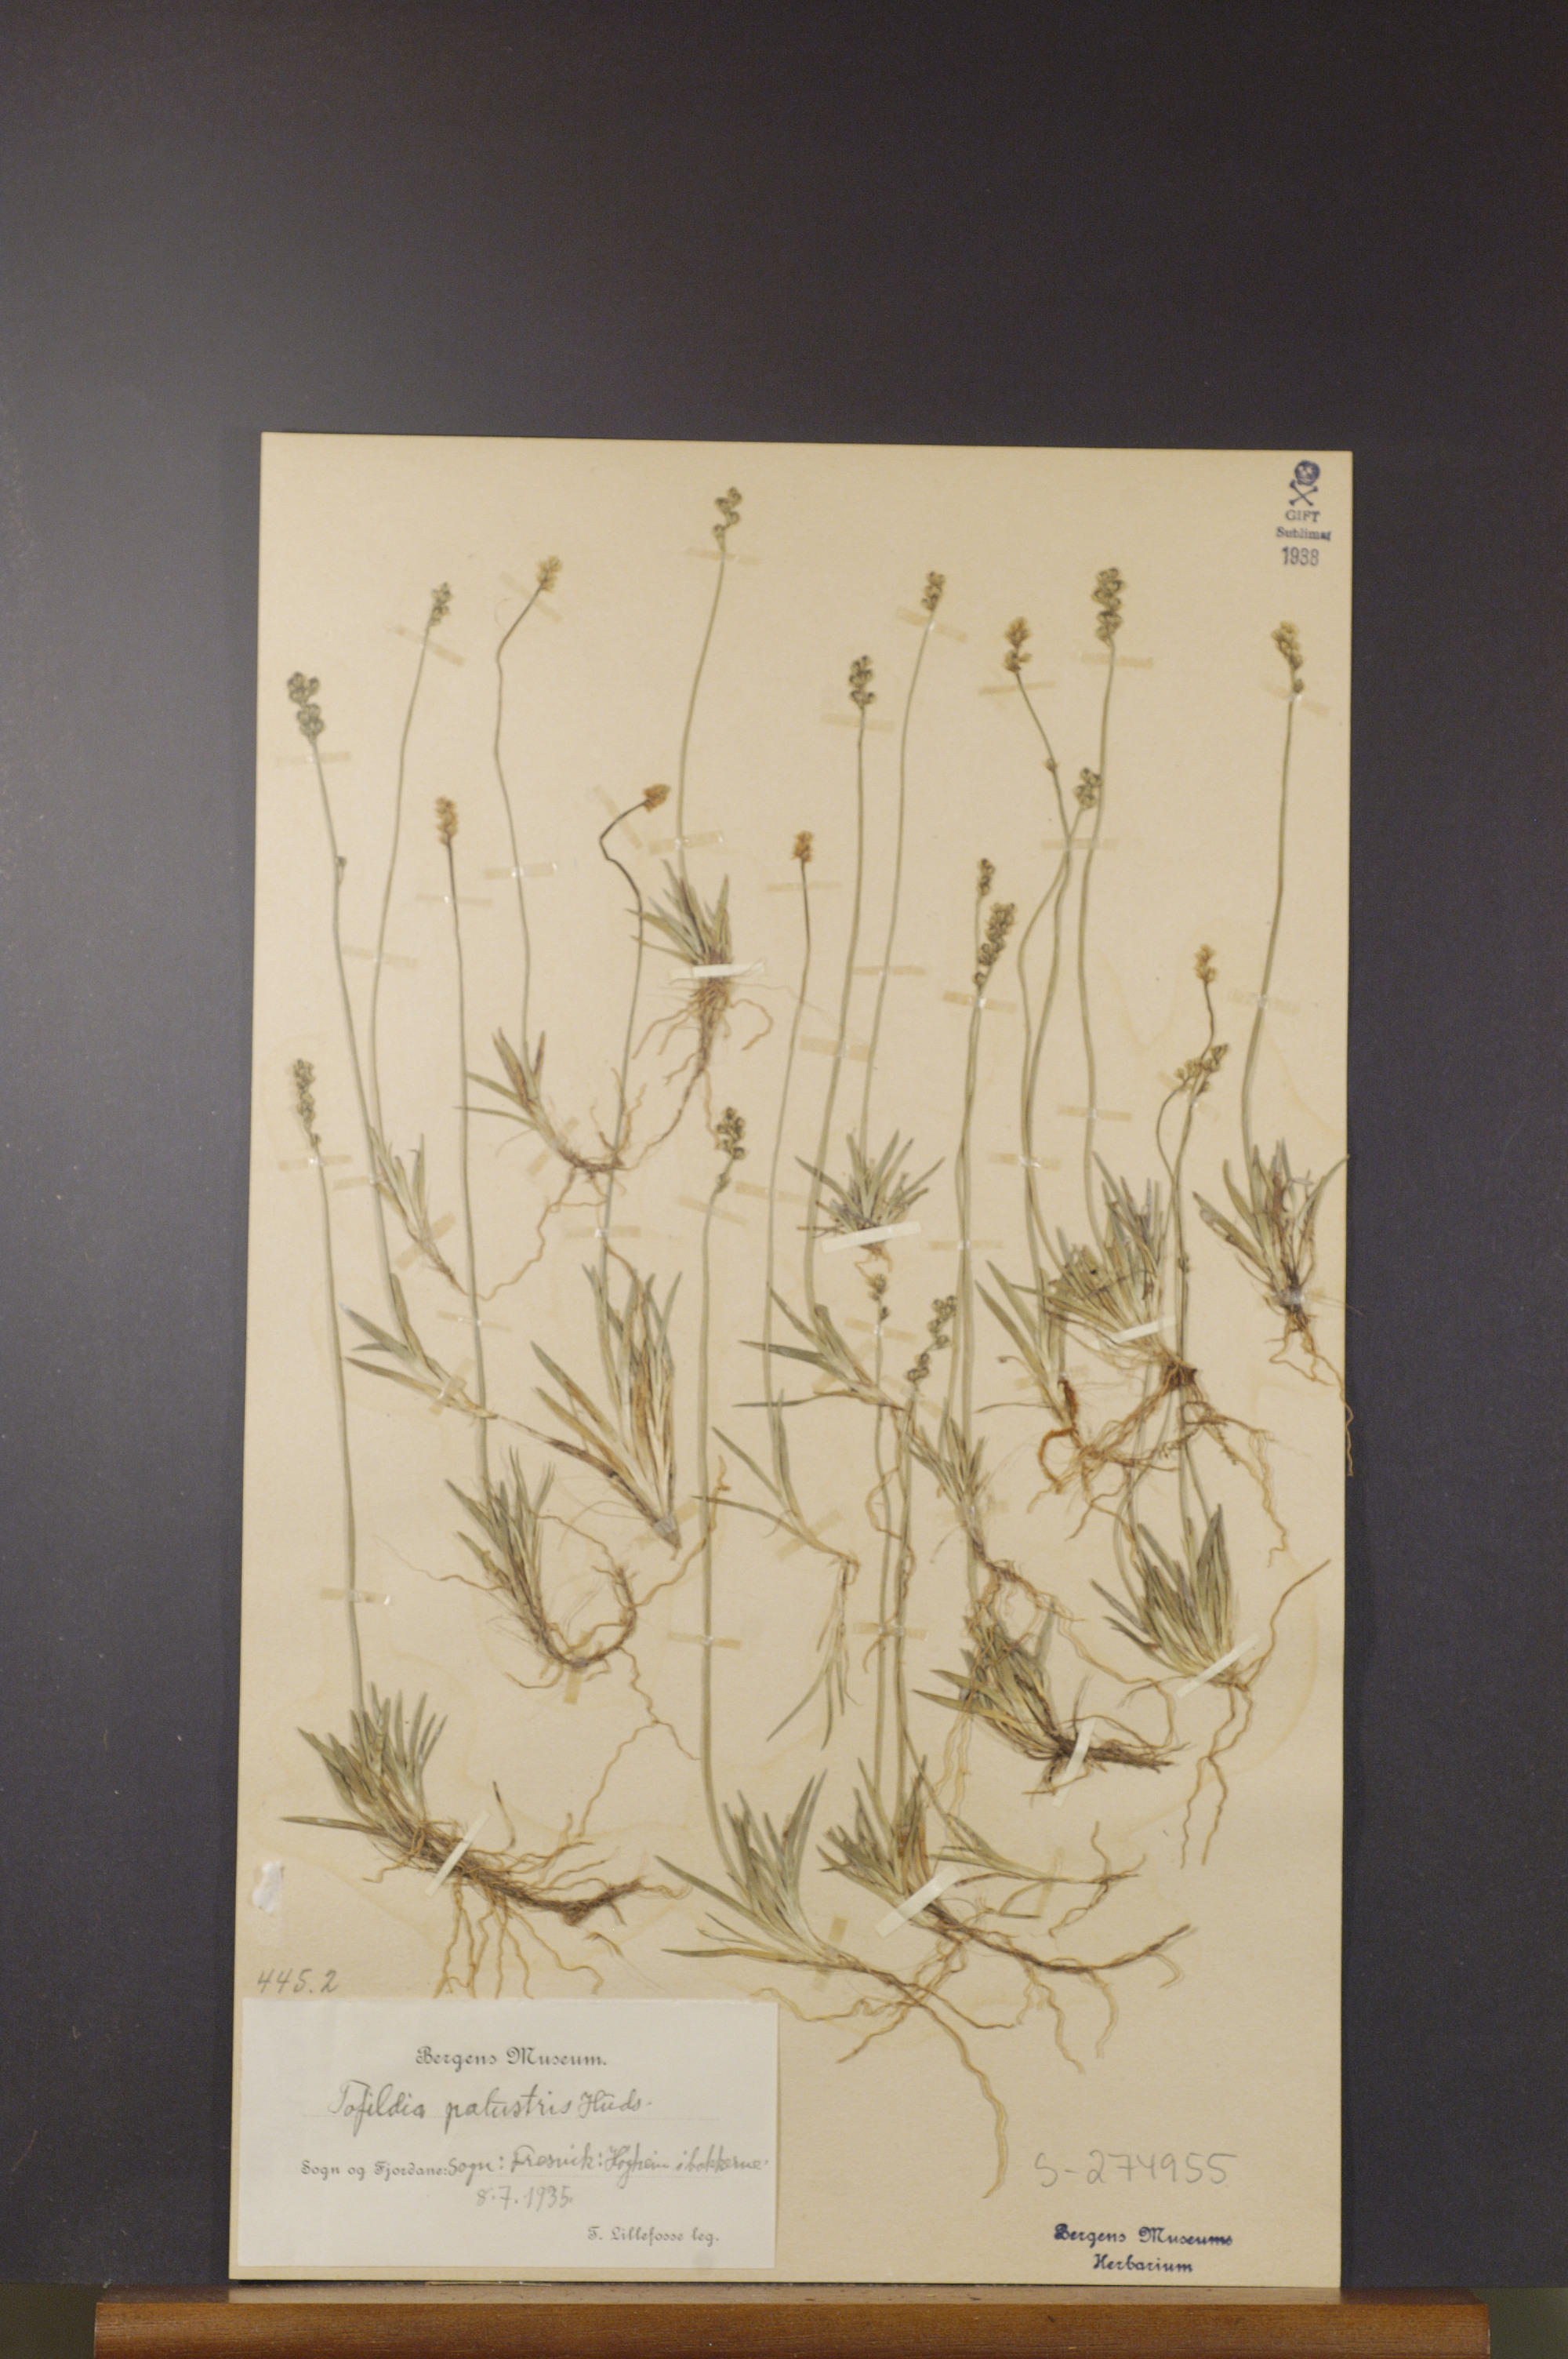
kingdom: Plantae
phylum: Tracheophyta
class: Liliopsida
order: Alismatales
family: Tofieldiaceae
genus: Tofieldia
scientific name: Tofieldia pusilla
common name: Scottish false asphodel
